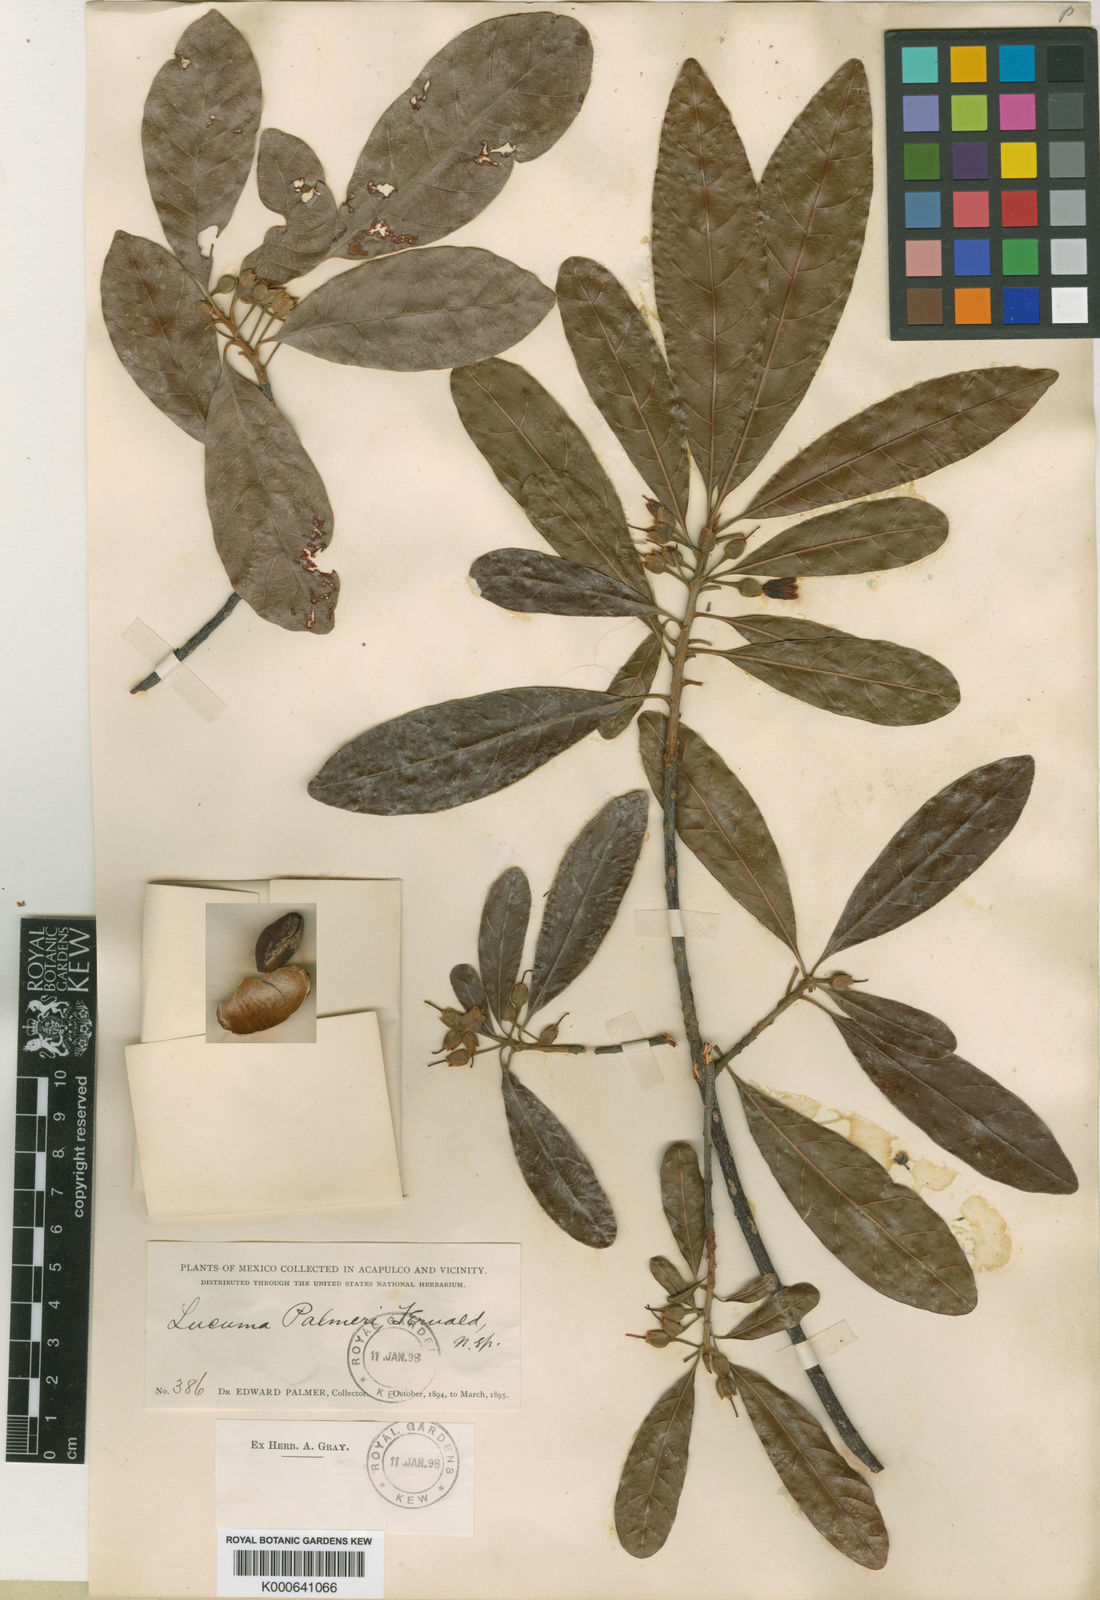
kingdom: Plantae
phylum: Tracheophyta
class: Magnoliopsida
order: Ericales
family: Sapotaceae
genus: Pouteria
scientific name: Pouteria campechiana
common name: Canistel
